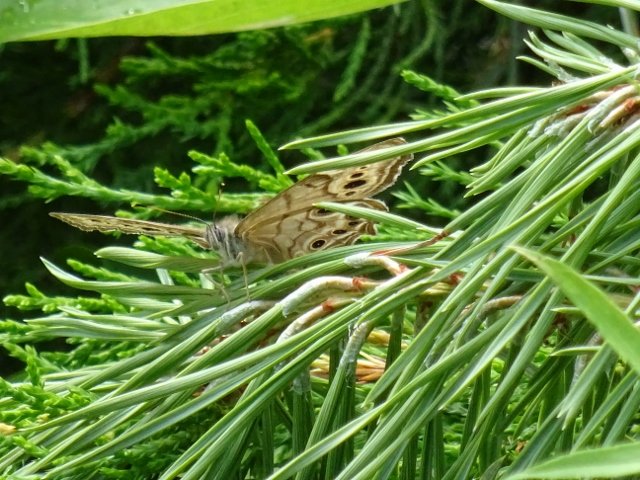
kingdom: Animalia
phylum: Arthropoda
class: Insecta
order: Lepidoptera
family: Nymphalidae
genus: Lethe
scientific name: Lethe anthedon
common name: Northern Pearly-Eye
